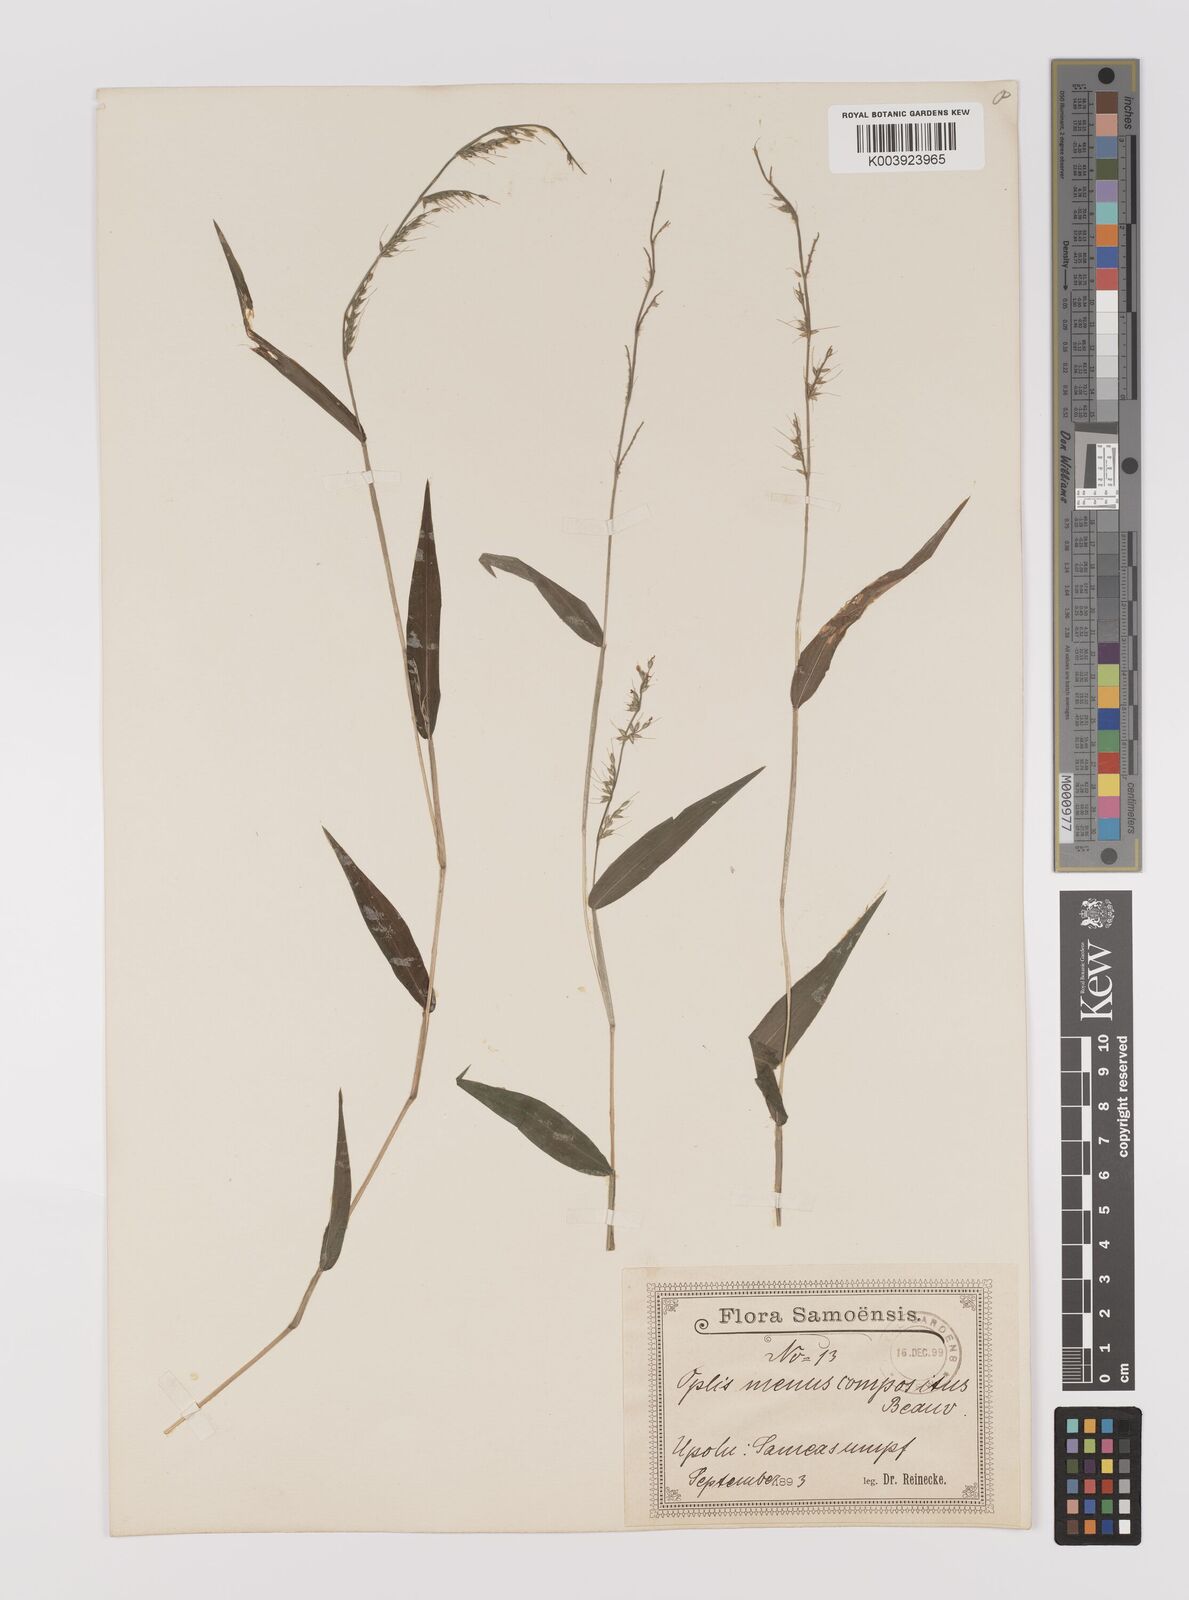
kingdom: Plantae
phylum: Tracheophyta
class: Liliopsida
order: Poales
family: Poaceae
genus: Oplismenus
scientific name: Oplismenus compositus
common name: Running mountain grass
